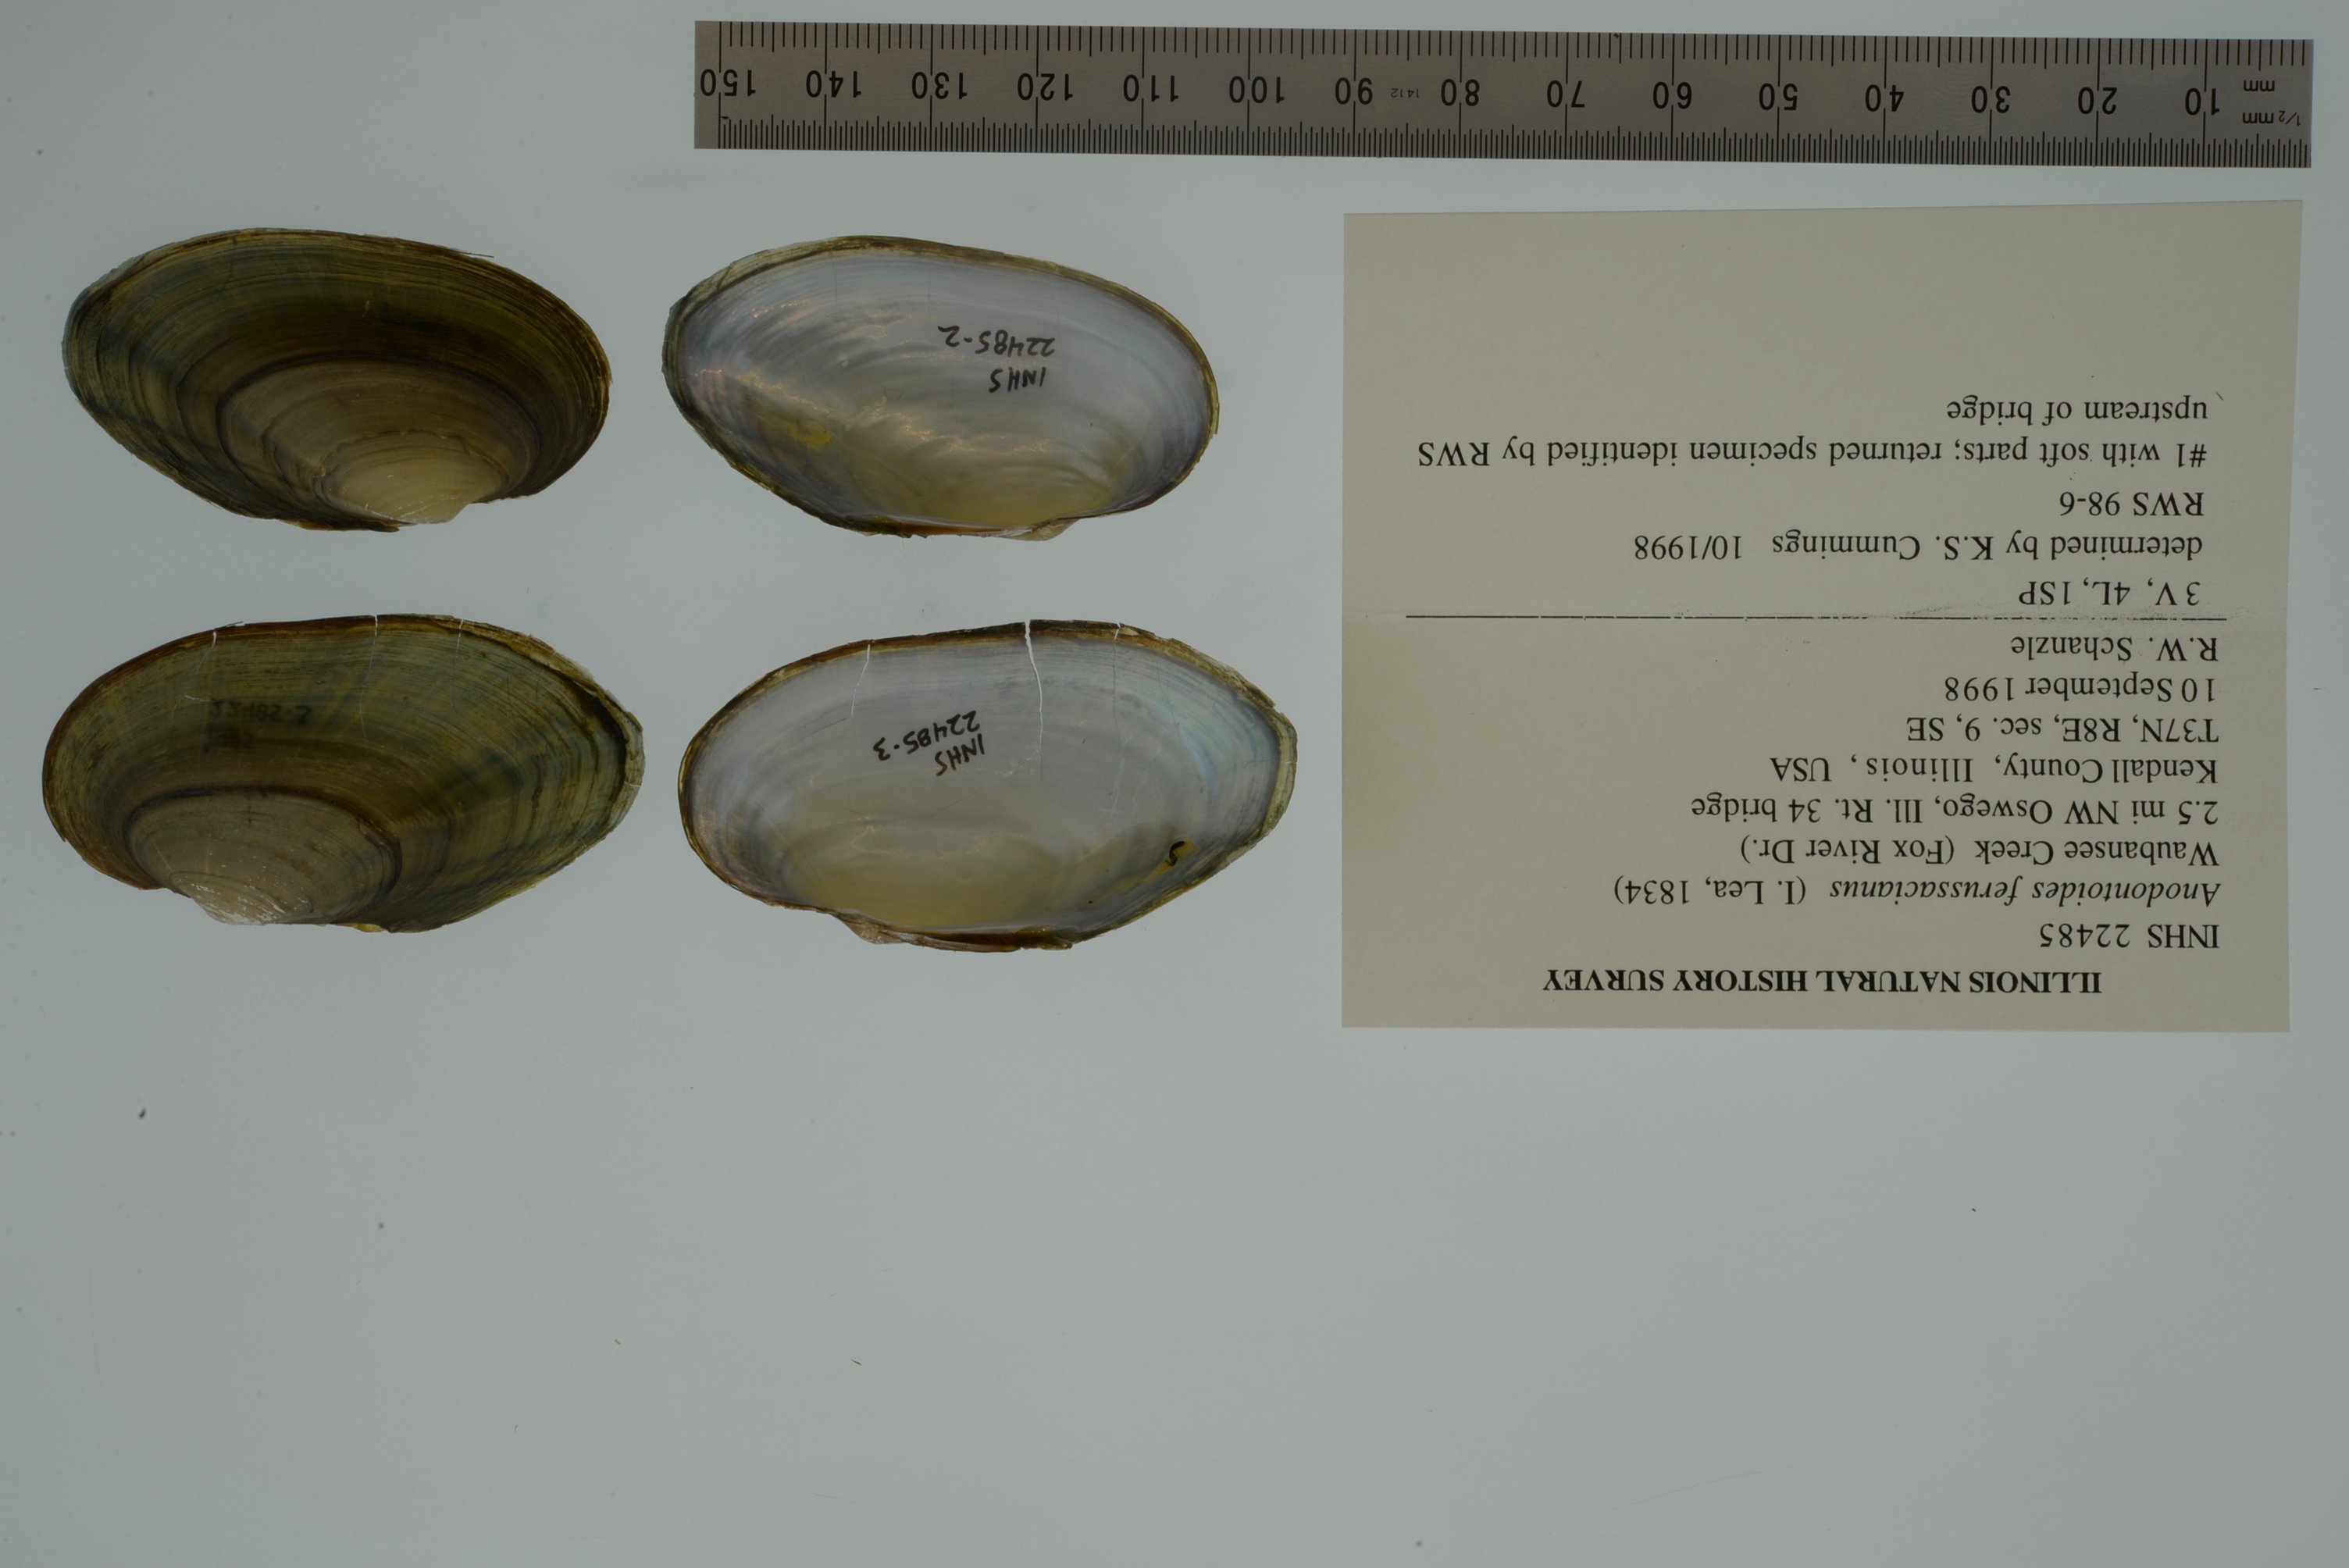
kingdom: Animalia
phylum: Mollusca
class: Bivalvia
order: Unionida
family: Unionidae
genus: Anodontoides
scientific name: Anodontoides ferussacianus
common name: Cylindrical papershell
